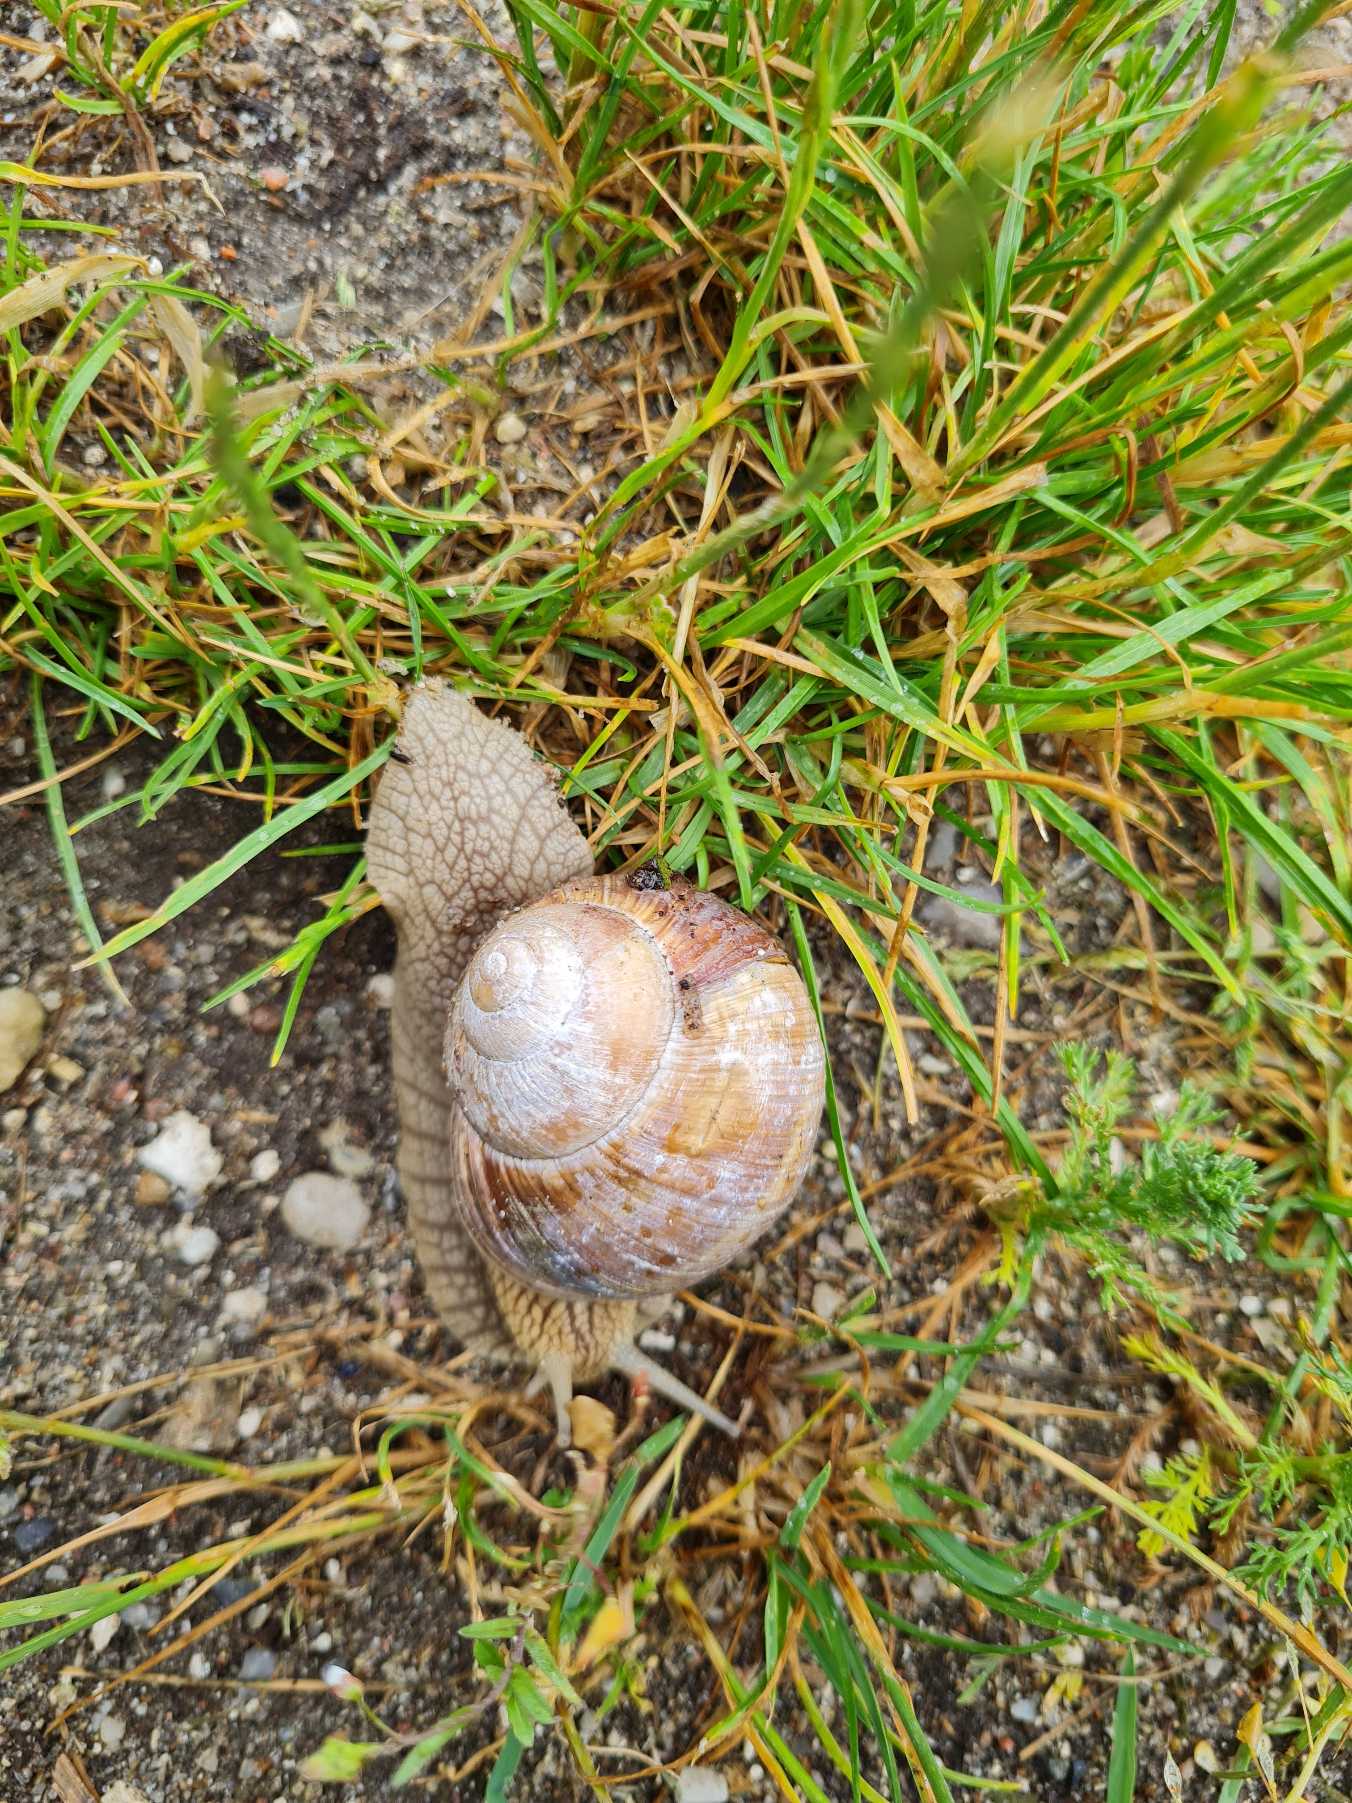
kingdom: Animalia
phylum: Mollusca
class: Gastropoda
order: Stylommatophora
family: Helicidae
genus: Helix
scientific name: Helix pomatia
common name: Vinbjergsnegl
